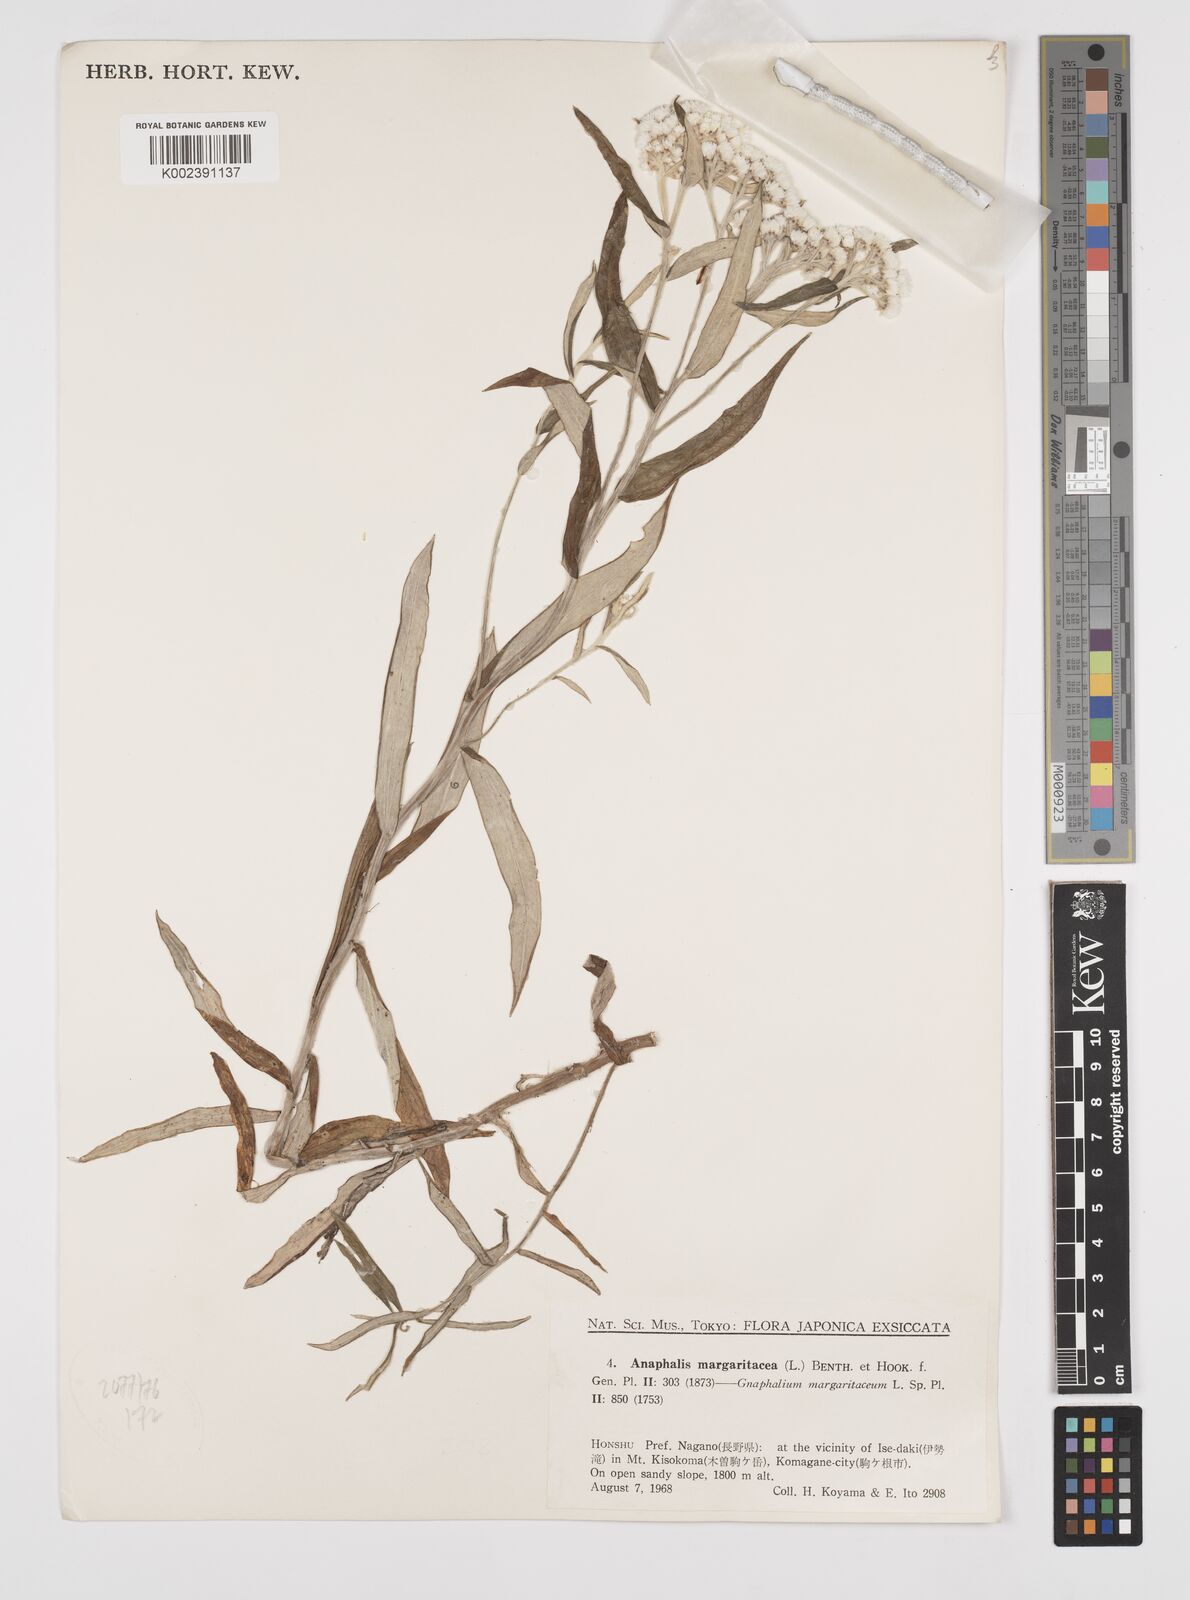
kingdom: Plantae
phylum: Tracheophyta
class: Magnoliopsida
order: Asterales
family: Asteraceae
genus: Anaphalis
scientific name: Anaphalis margaritacea
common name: Pearly everlasting
